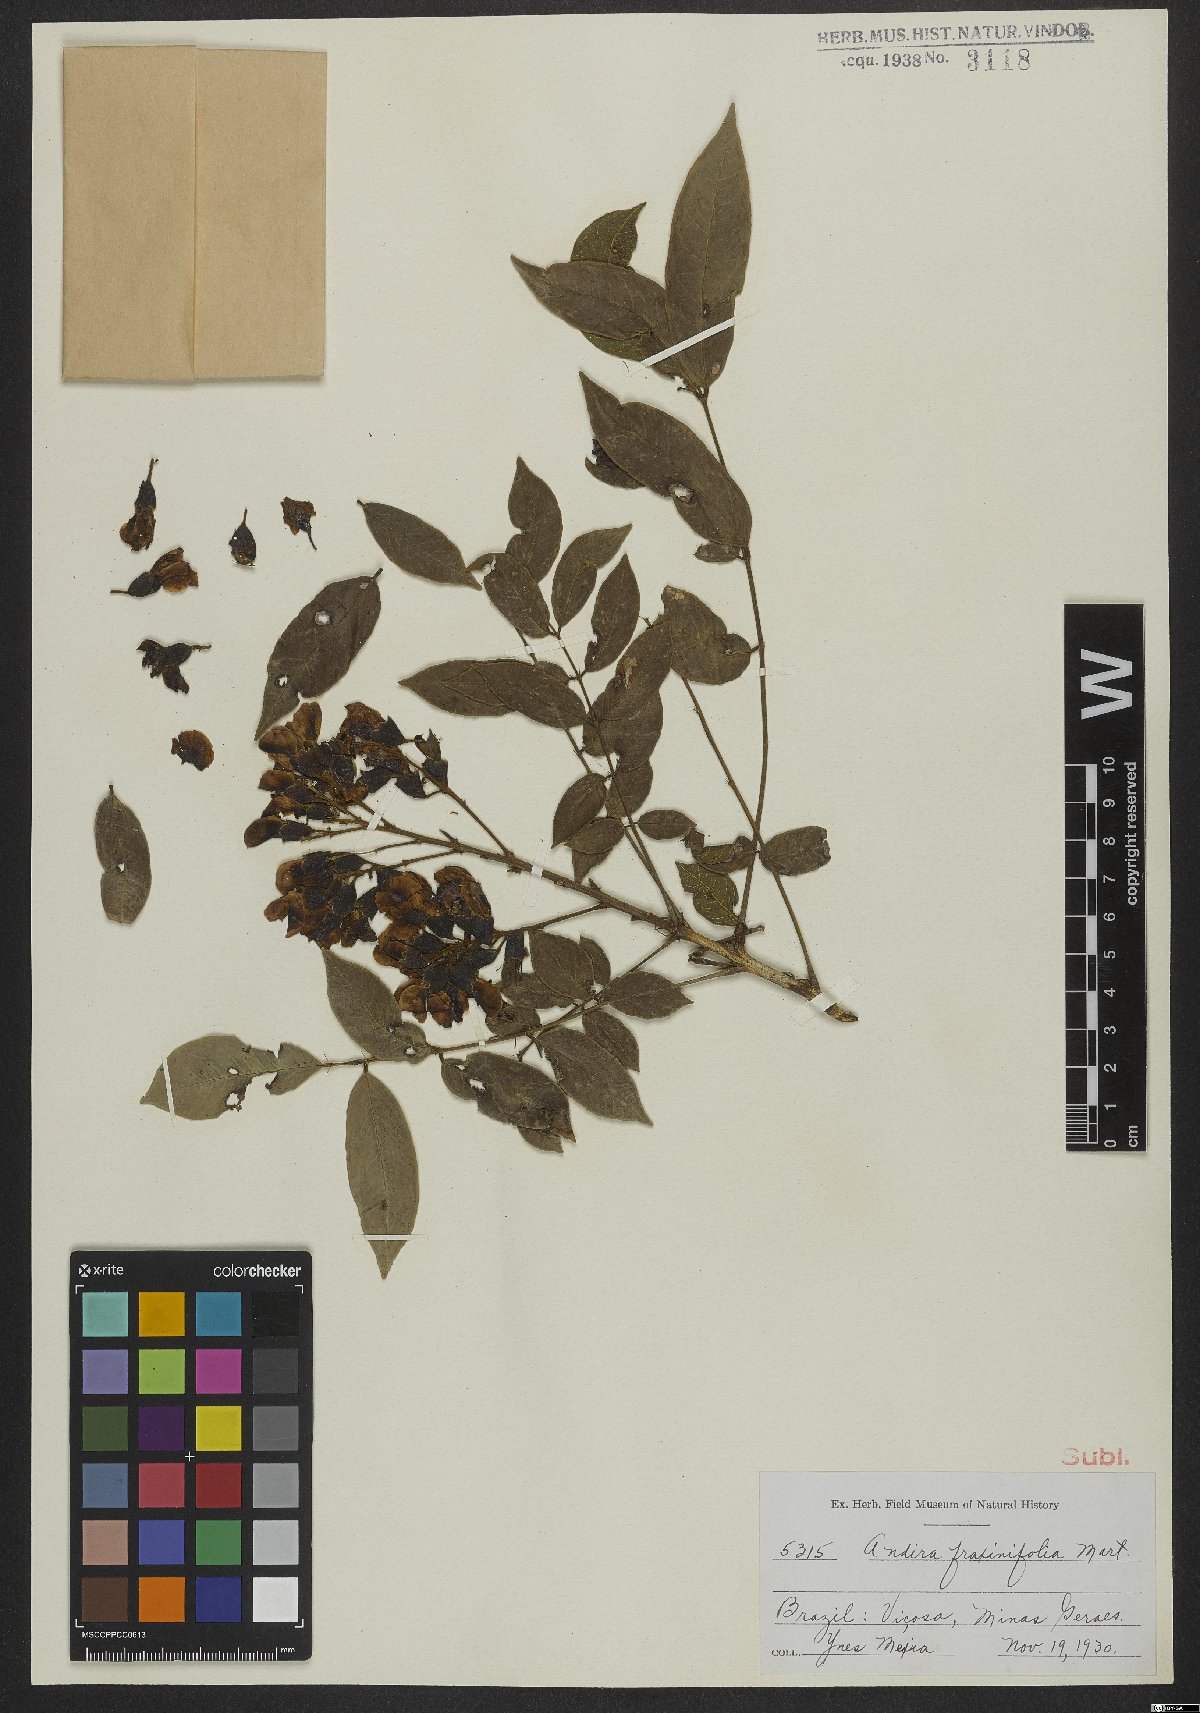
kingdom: Plantae
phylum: Tracheophyta
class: Magnoliopsida
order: Fabales
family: Fabaceae
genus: Andira
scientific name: Andira fraxinifolia
